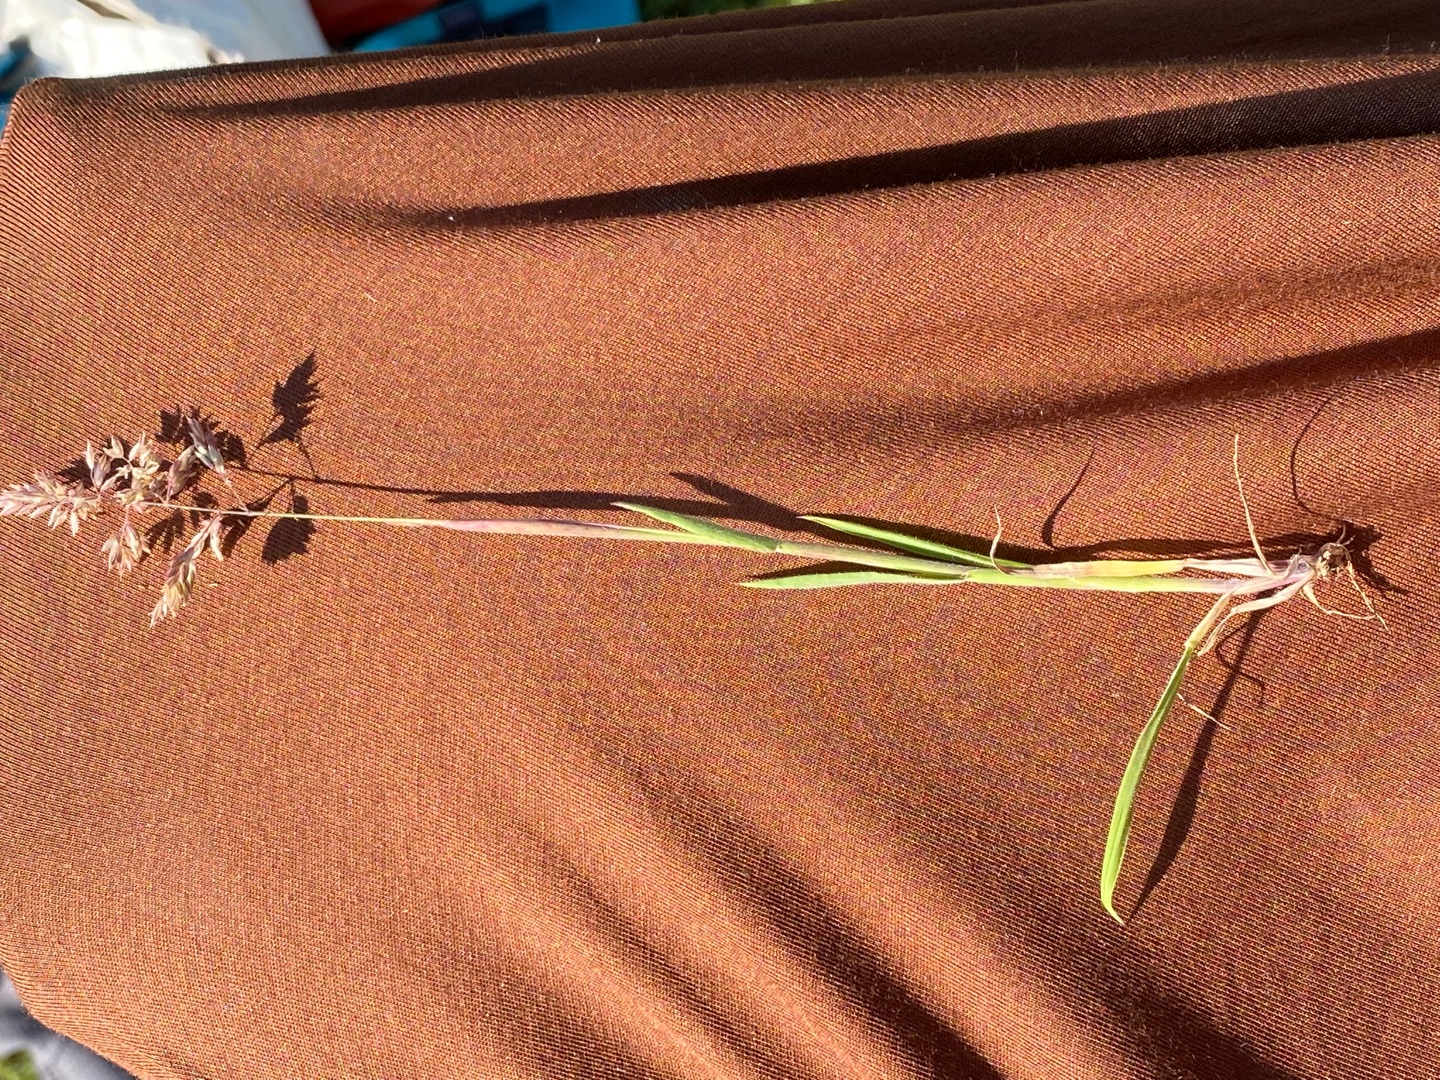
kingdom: Plantae
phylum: Tracheophyta
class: Liliopsida
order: Poales
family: Poaceae
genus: Holcus
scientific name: Holcus lanatus
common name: Fløjlsgræs
